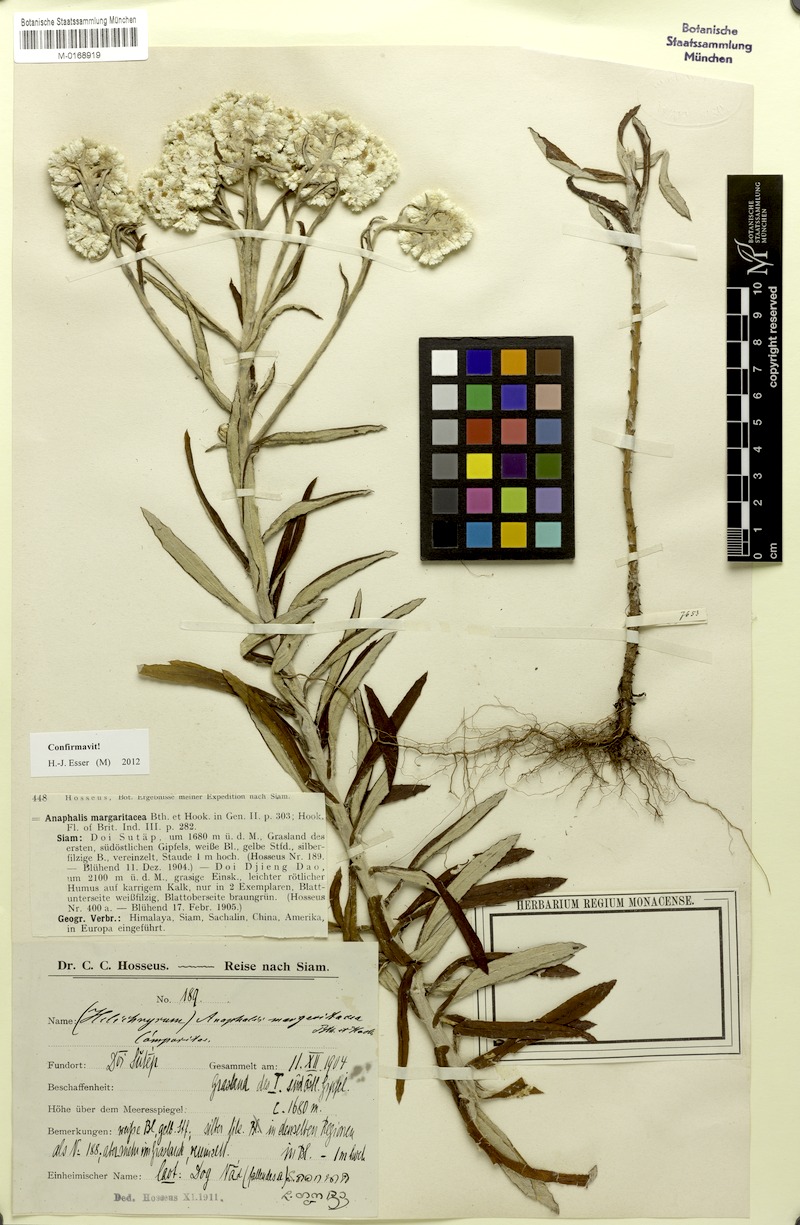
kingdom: Plantae
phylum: Tracheophyta
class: Magnoliopsida
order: Asterales
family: Asteraceae
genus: Anaphalis
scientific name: Anaphalis margaritacea
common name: Pearly everlasting
